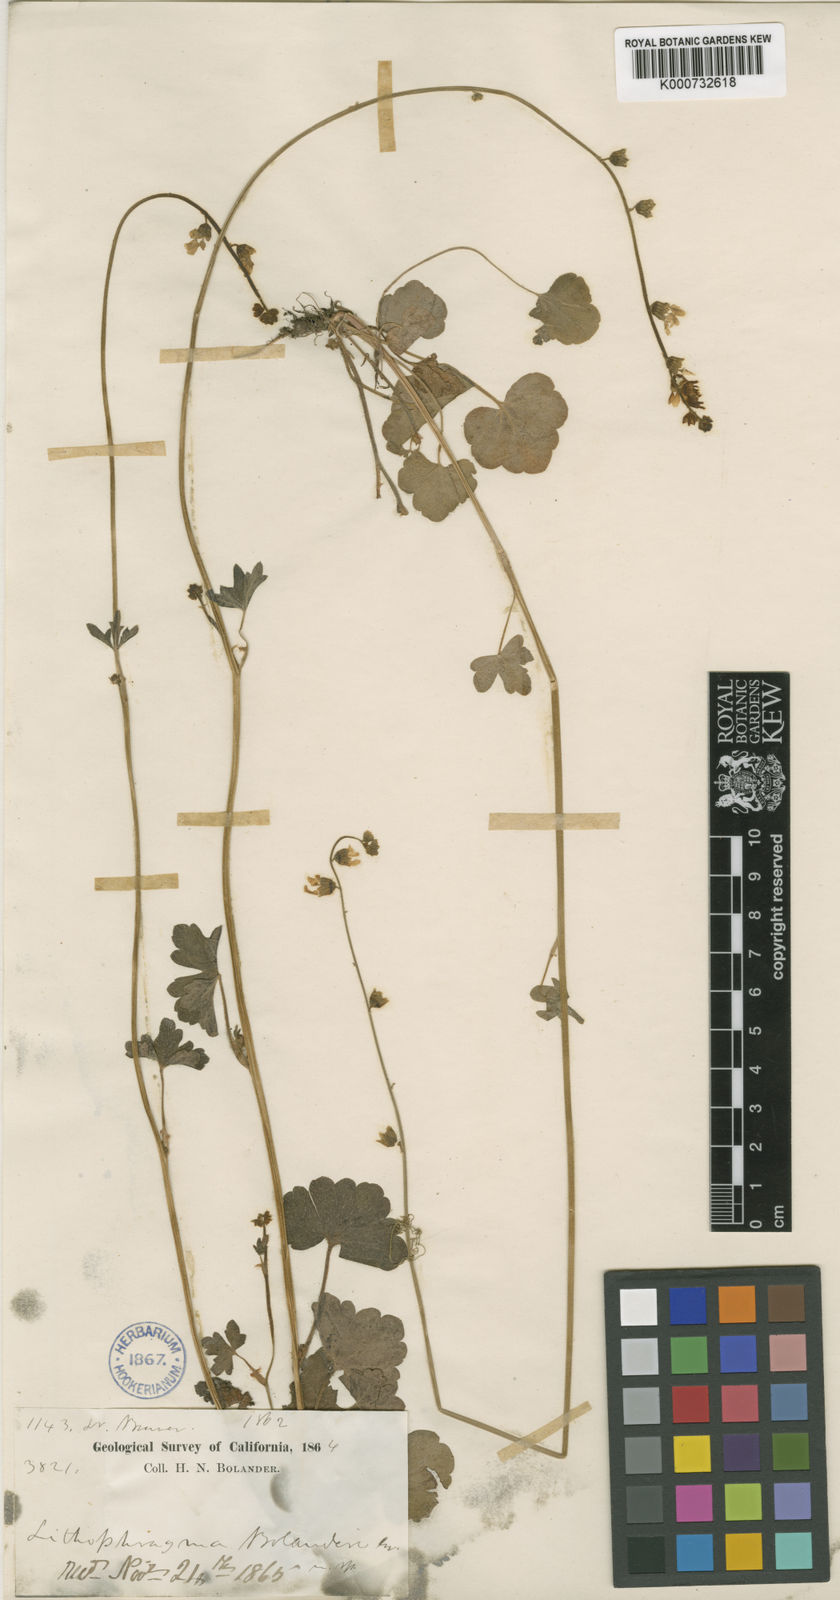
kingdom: Plantae
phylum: Tracheophyta
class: Magnoliopsida
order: Saxifragales
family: Saxifragaceae
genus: Lithophragma
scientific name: Lithophragma bolanderi
